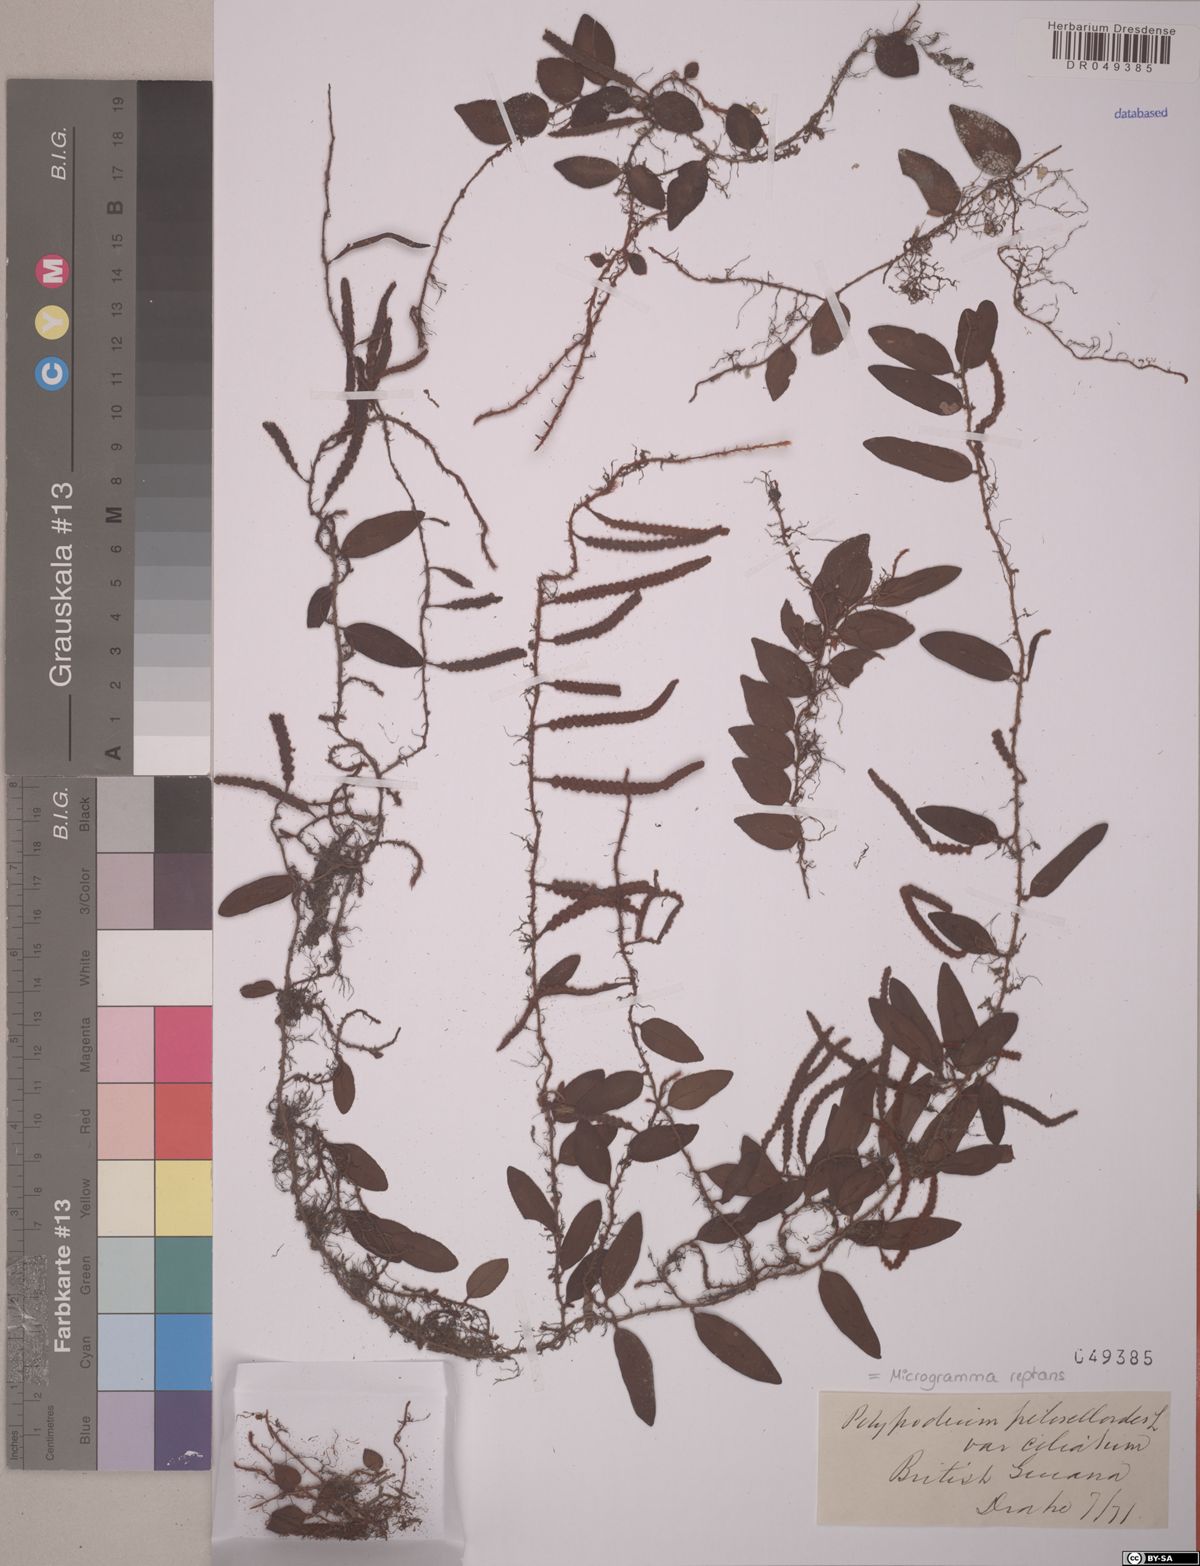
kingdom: Plantae
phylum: Tracheophyta
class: Polypodiopsida
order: Polypodiales
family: Polypodiaceae
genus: Microgramma
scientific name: Microgramma reptans
